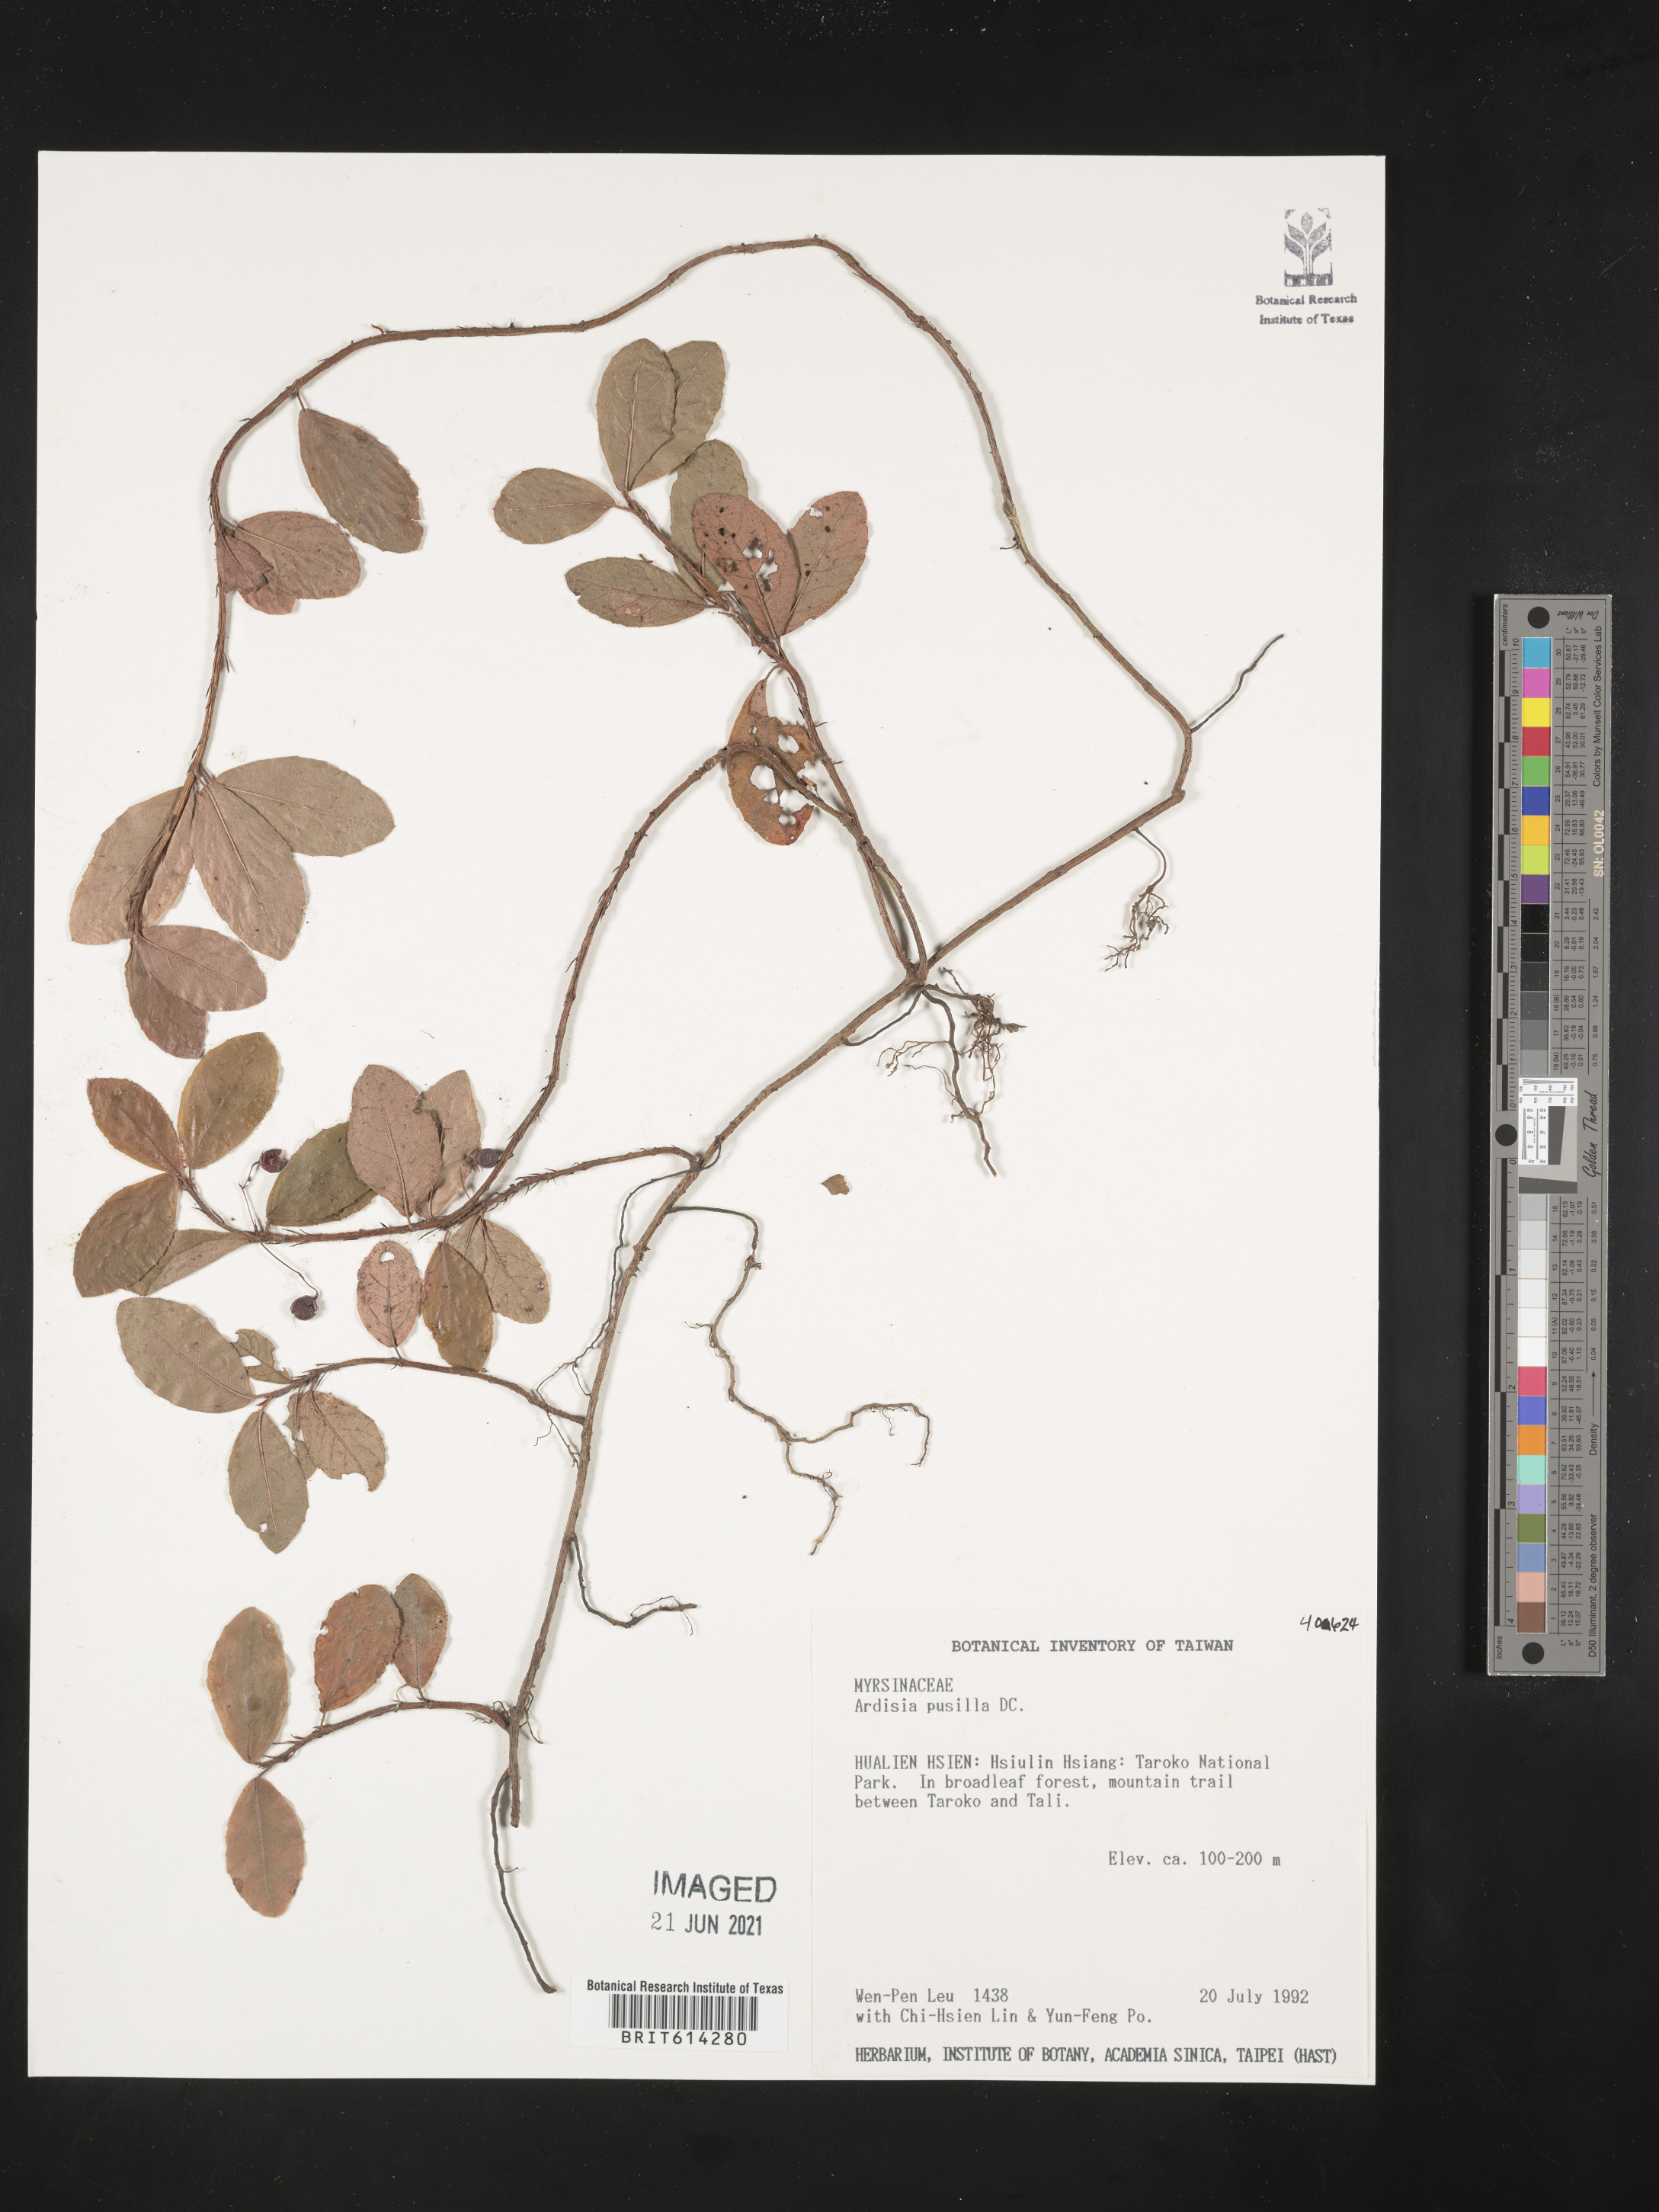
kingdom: Plantae
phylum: Tracheophyta
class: Magnoliopsida
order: Ericales
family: Primulaceae
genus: Ardisia
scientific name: Ardisia pusilla
